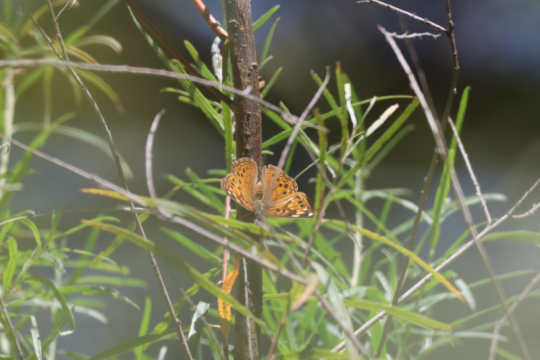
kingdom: Animalia
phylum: Arthropoda
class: Insecta
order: Lepidoptera
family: Nymphalidae
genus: Asterocampa
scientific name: Asterocampa celtis
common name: Hackberry Emperor
